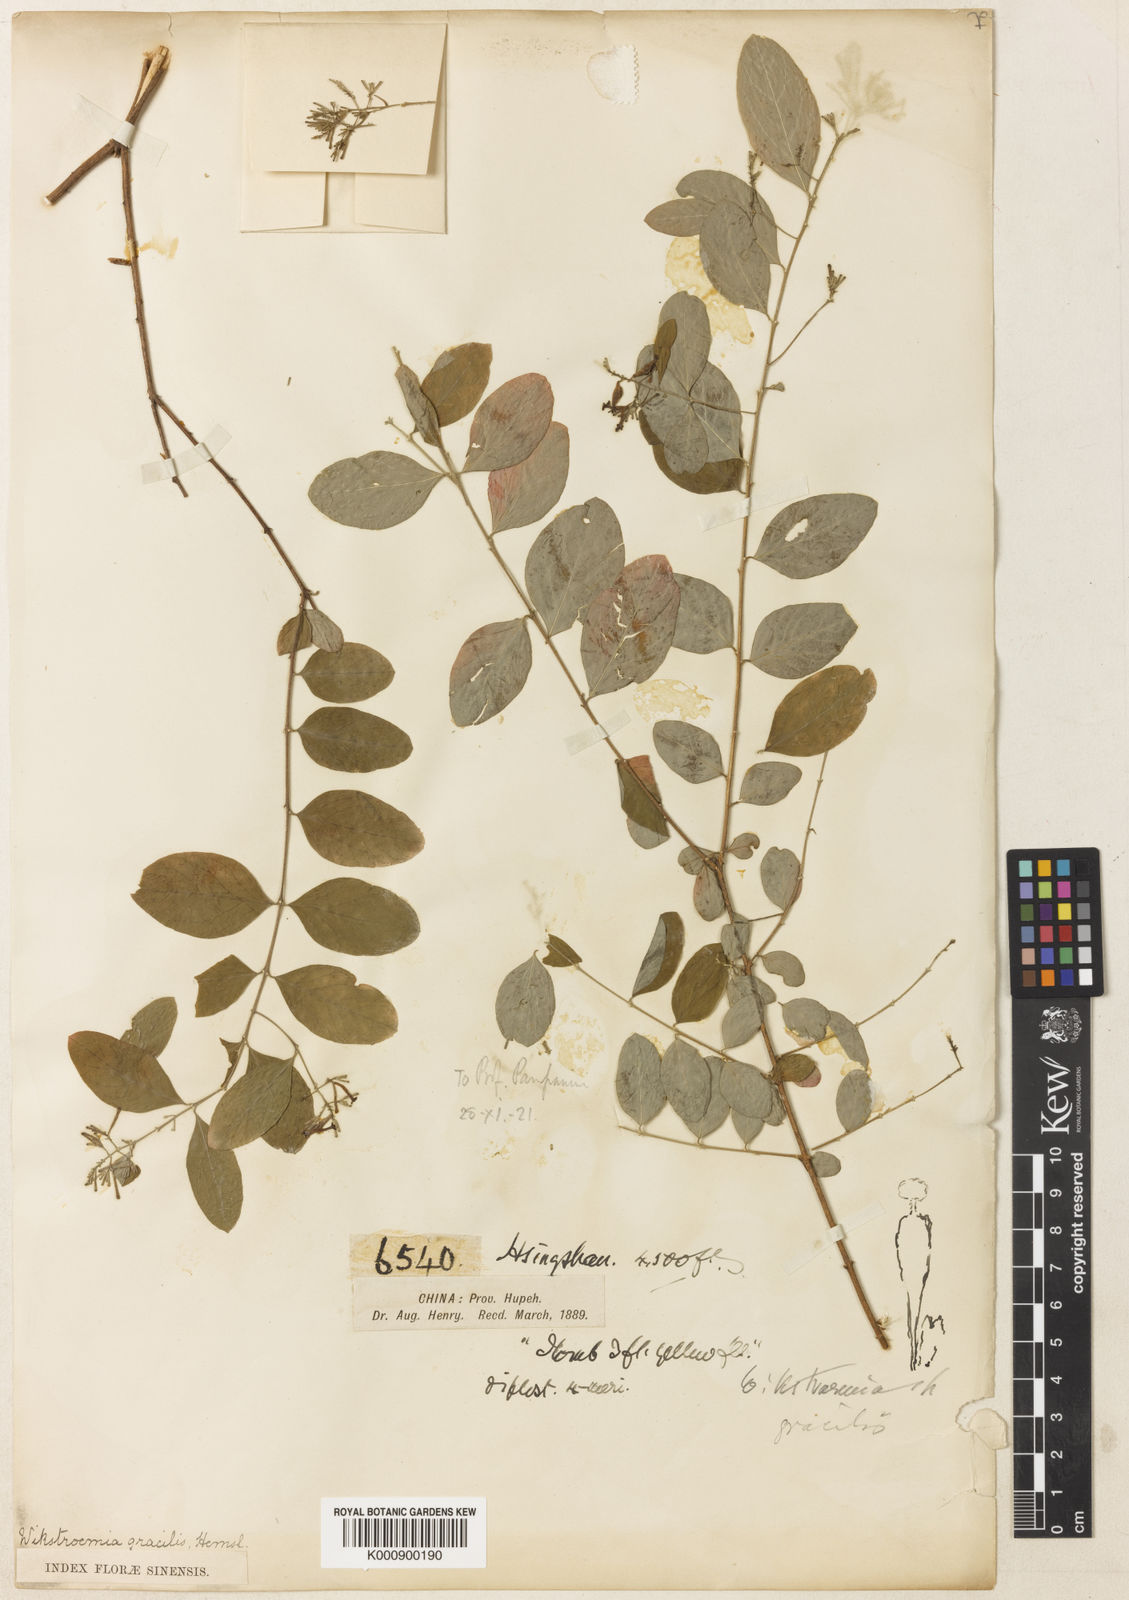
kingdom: Plantae
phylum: Tracheophyta
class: Magnoliopsida
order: Malvales
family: Thymelaeaceae
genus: Wikstroemia
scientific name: Wikstroemia gracilis
